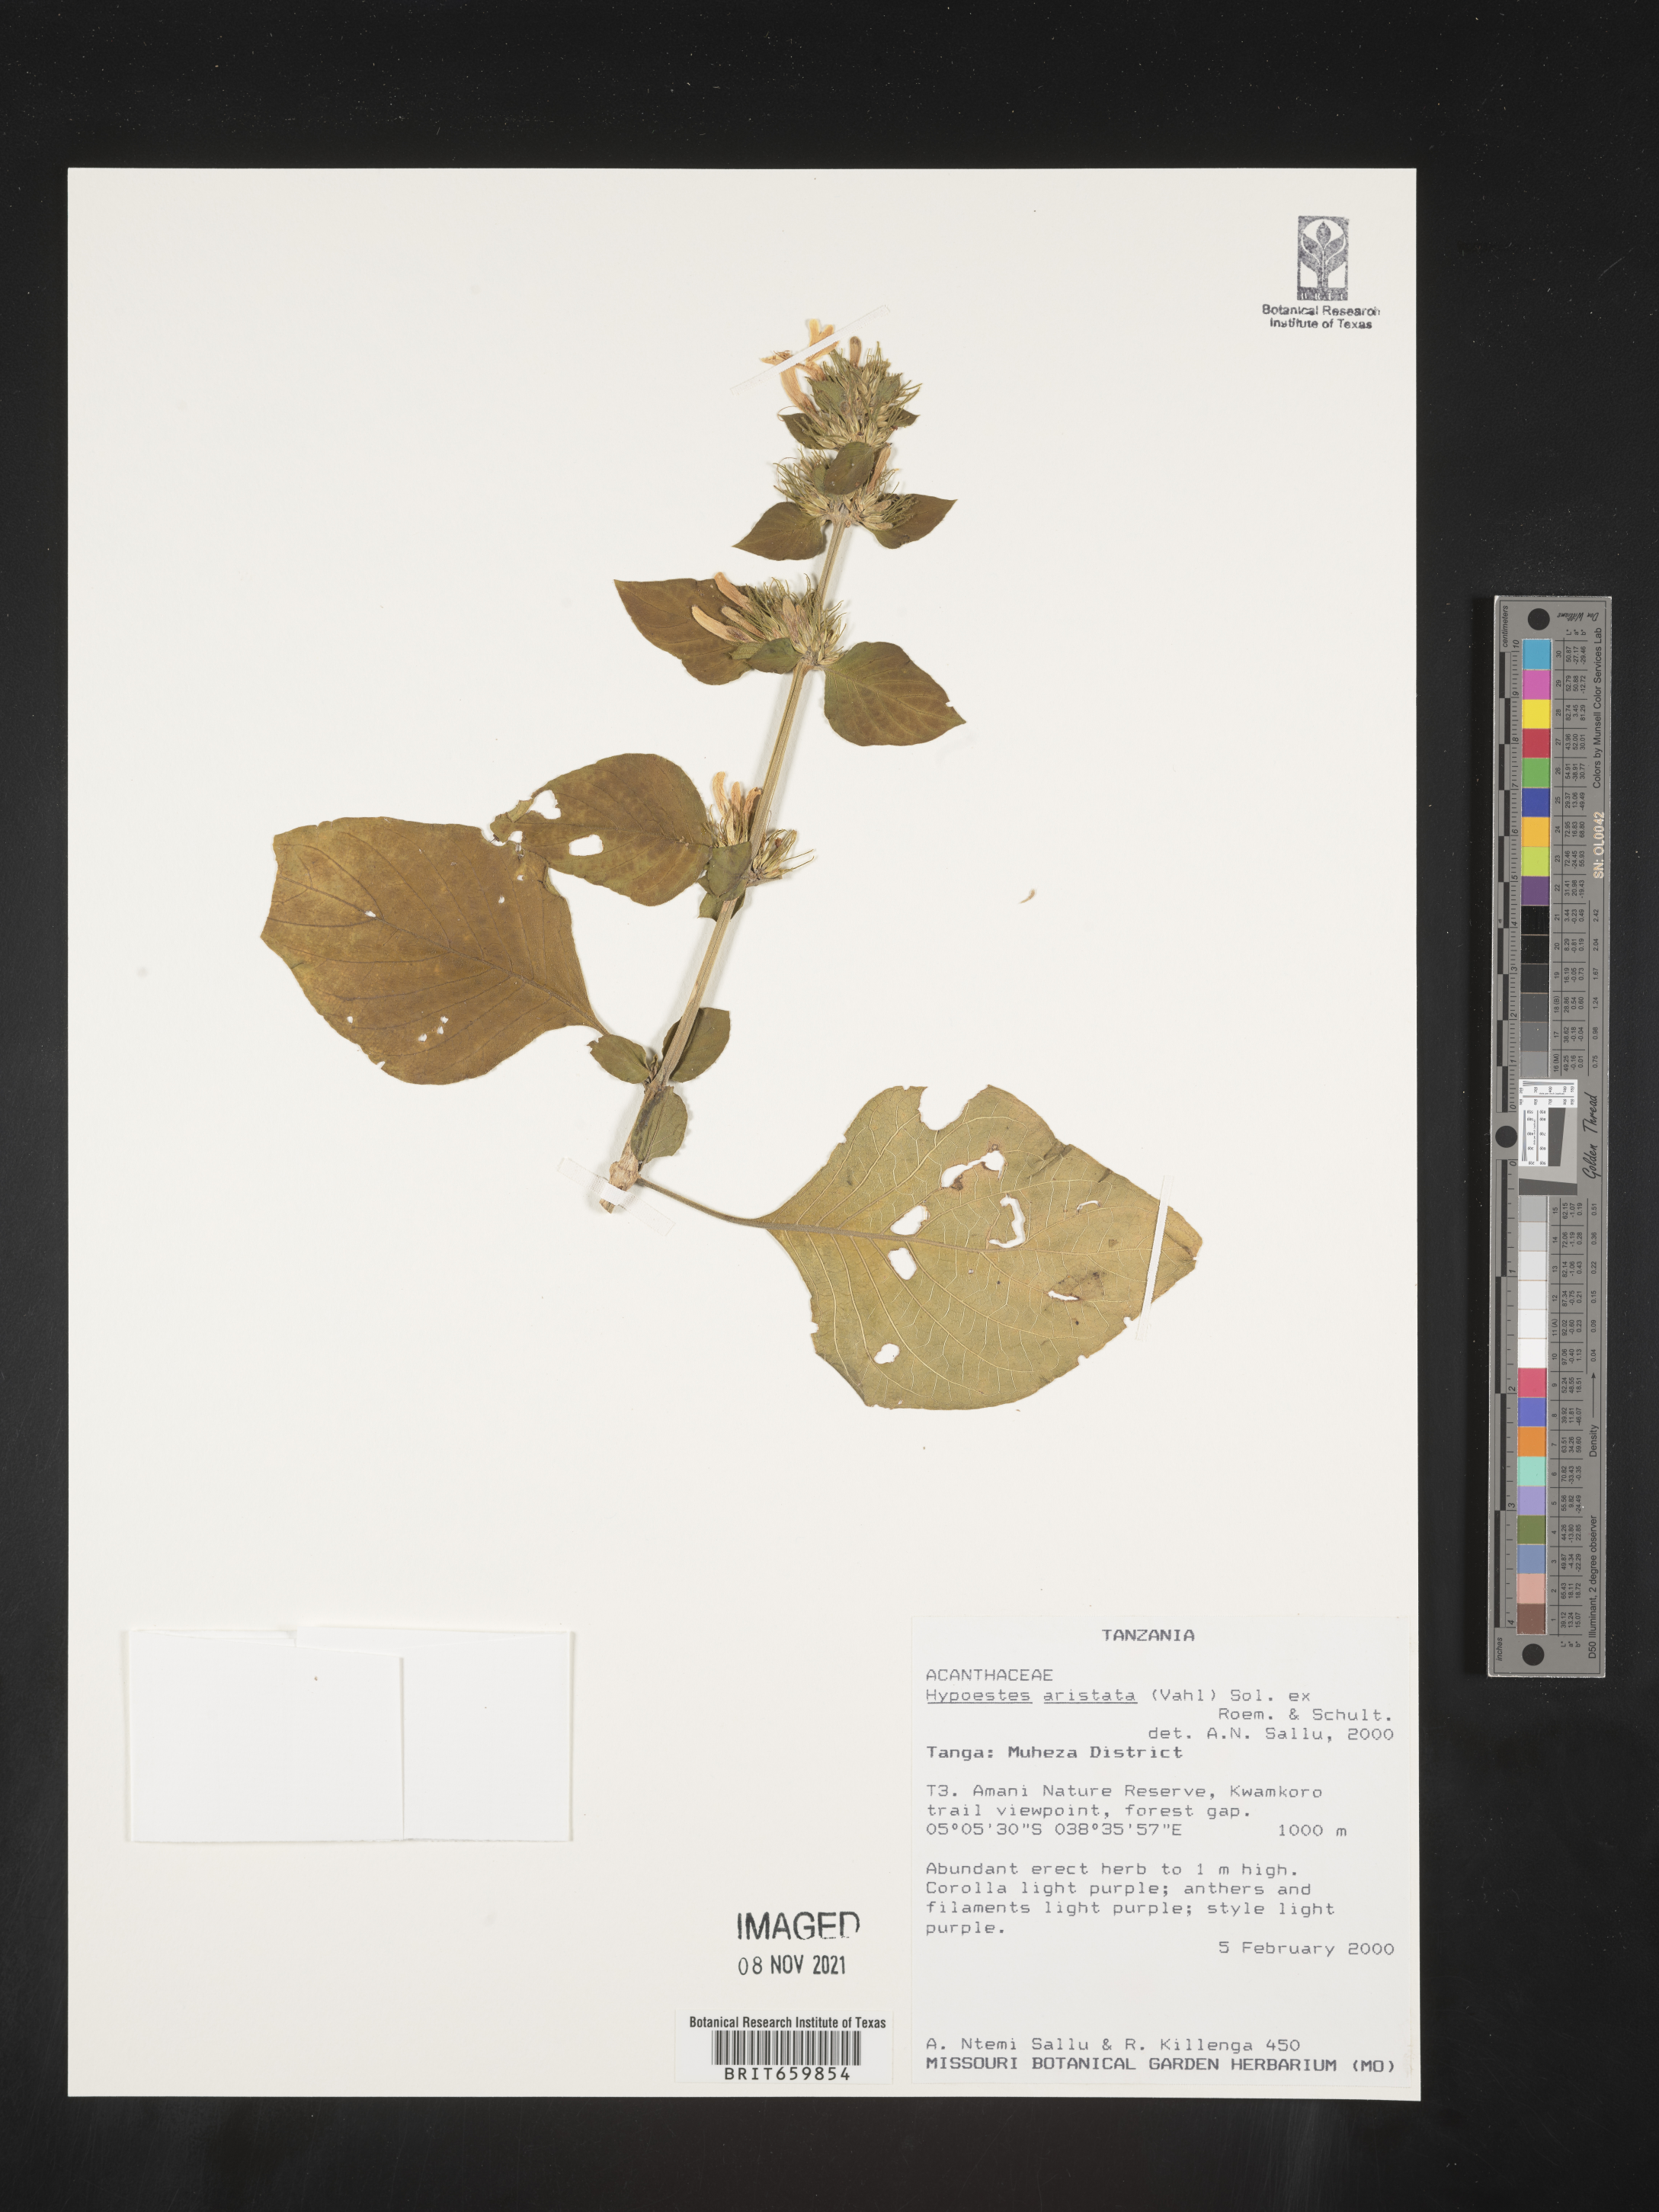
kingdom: Plantae
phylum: Tracheophyta
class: Magnoliopsida
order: Lamiales
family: Acanthaceae
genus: Hypoestes
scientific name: Hypoestes aristata
